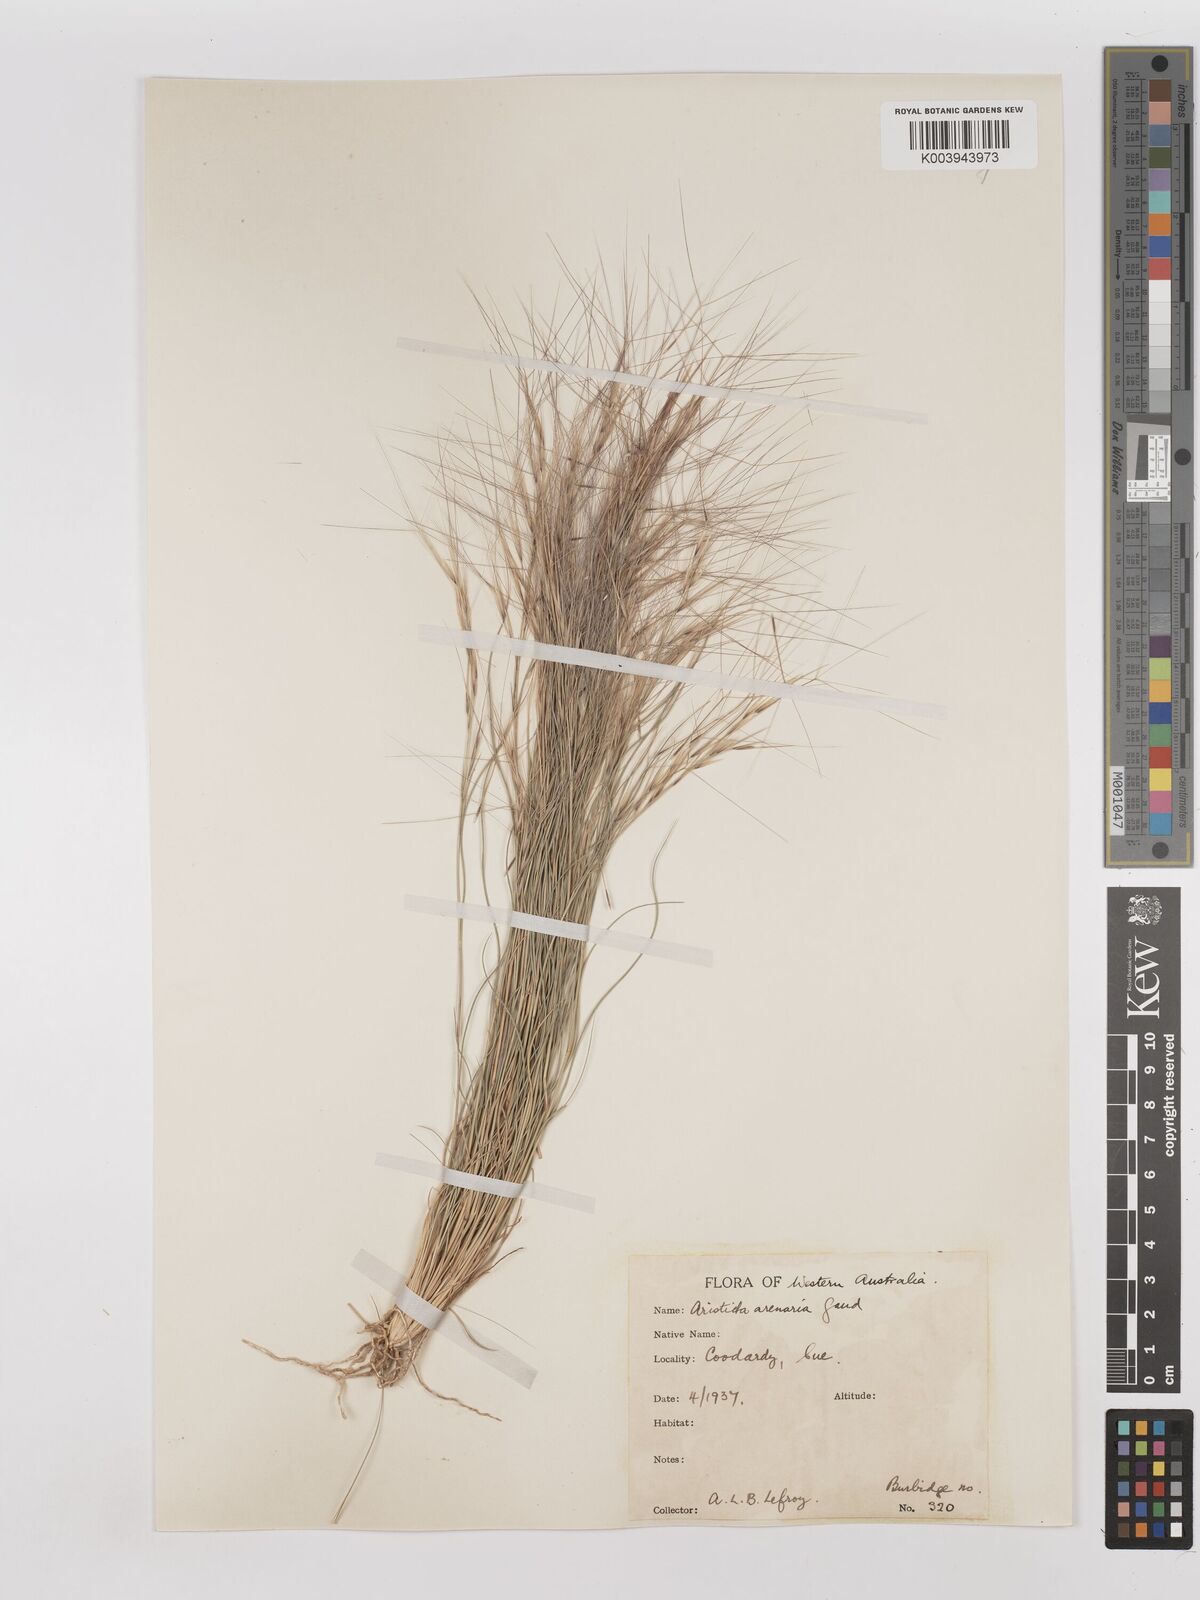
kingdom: Plantae
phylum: Tracheophyta
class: Liliopsida
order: Poales
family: Poaceae
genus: Aristida
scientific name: Aristida contorta
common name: Bunch kerosene grass
